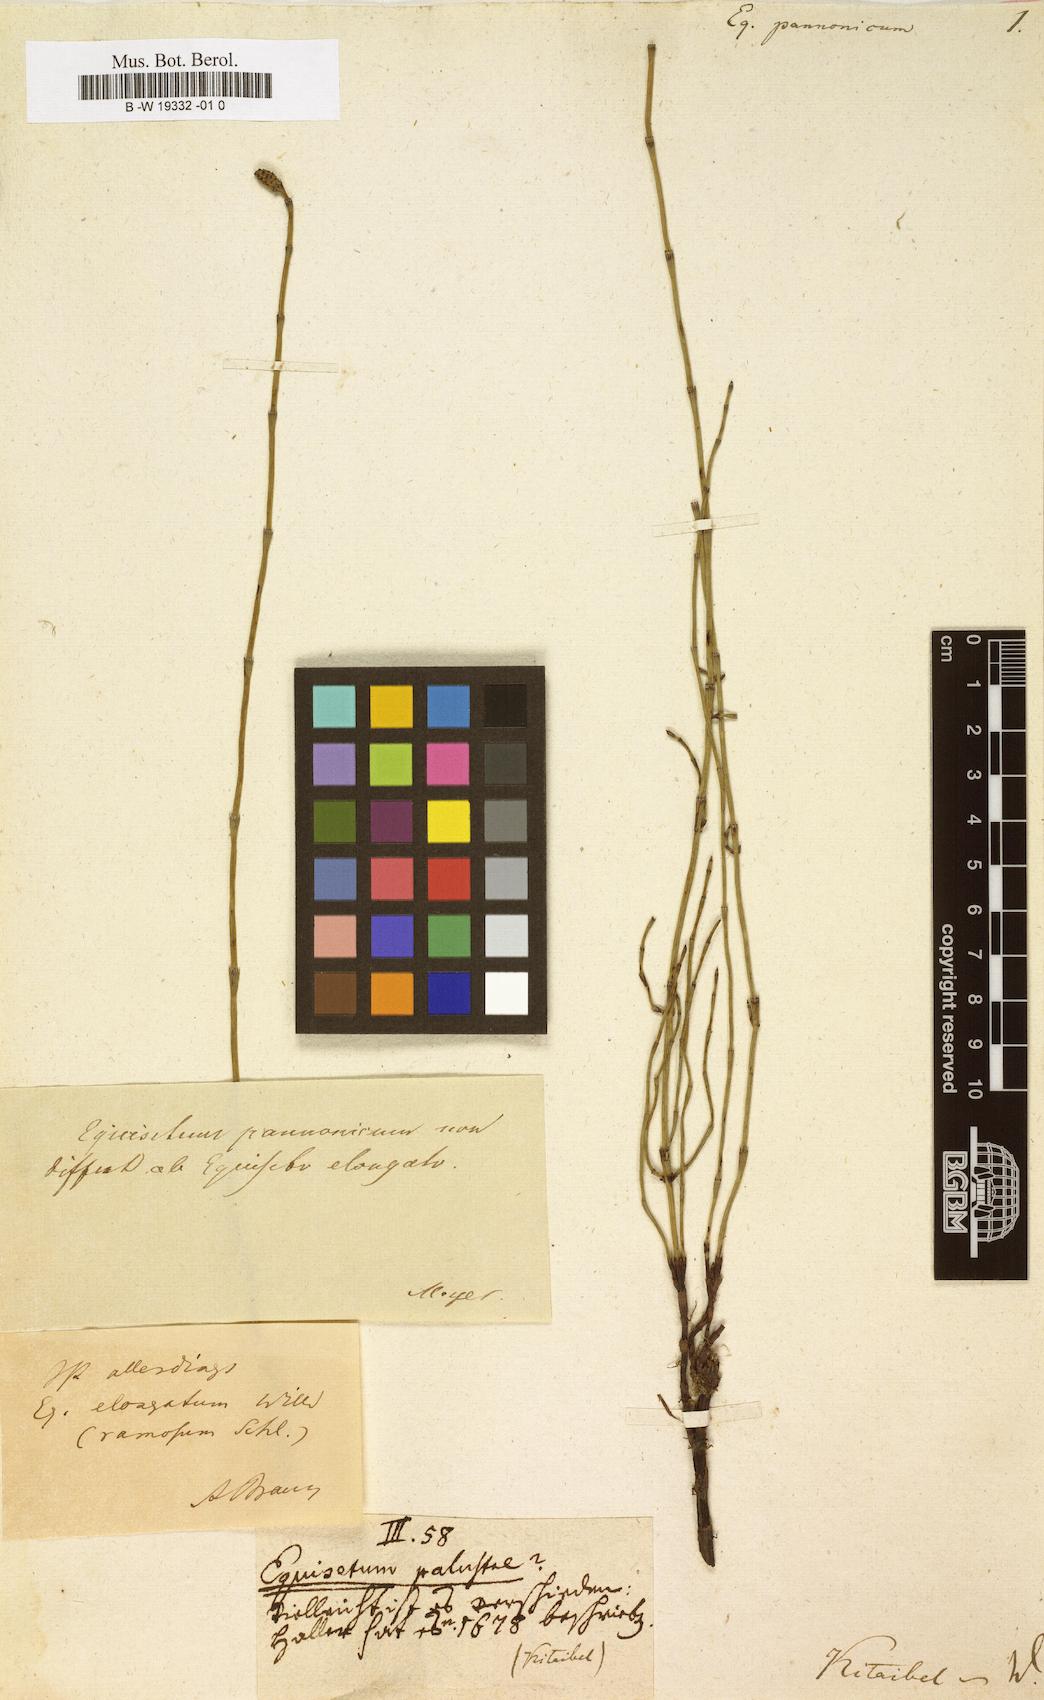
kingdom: Plantae
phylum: Tracheophyta
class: Polypodiopsida
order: Equisetales
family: Equisetaceae
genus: Equisetum
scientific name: Equisetum ramosissimum
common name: Branched horsetail
